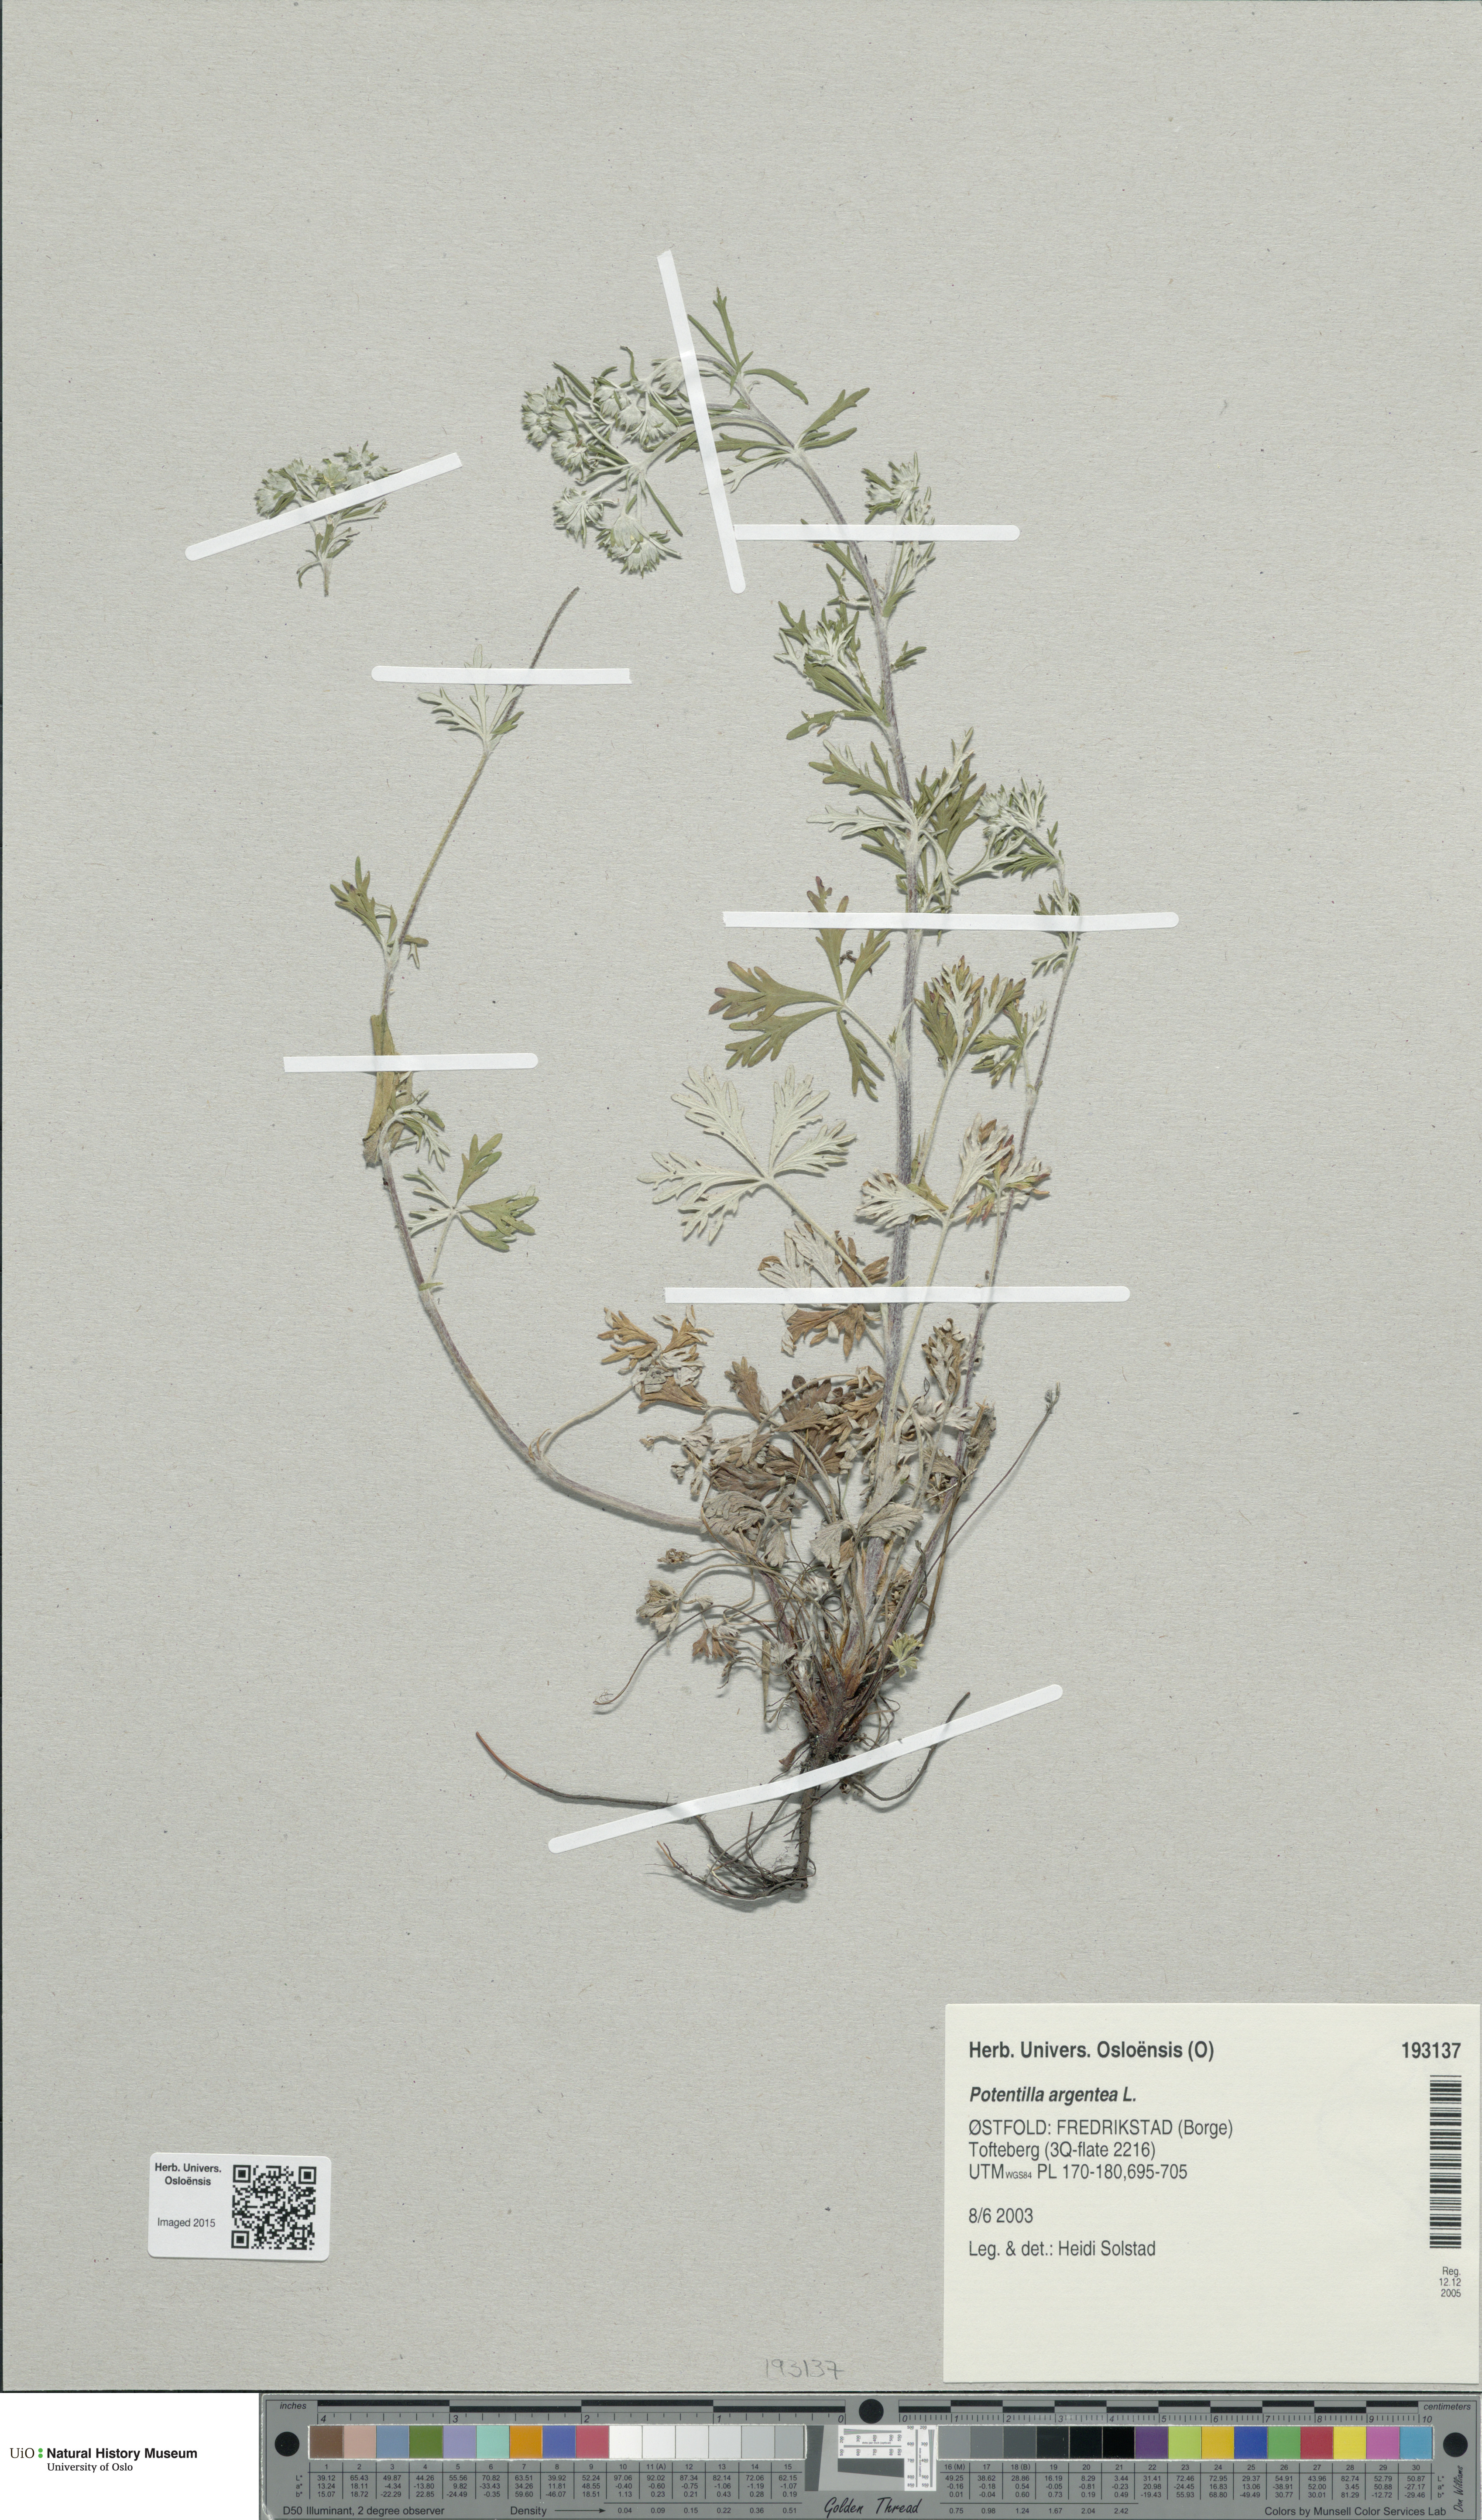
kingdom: Plantae
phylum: Tracheophyta
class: Magnoliopsida
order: Rosales
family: Rosaceae
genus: Potentilla
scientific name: Potentilla argentea
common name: Hoary cinquefoil
